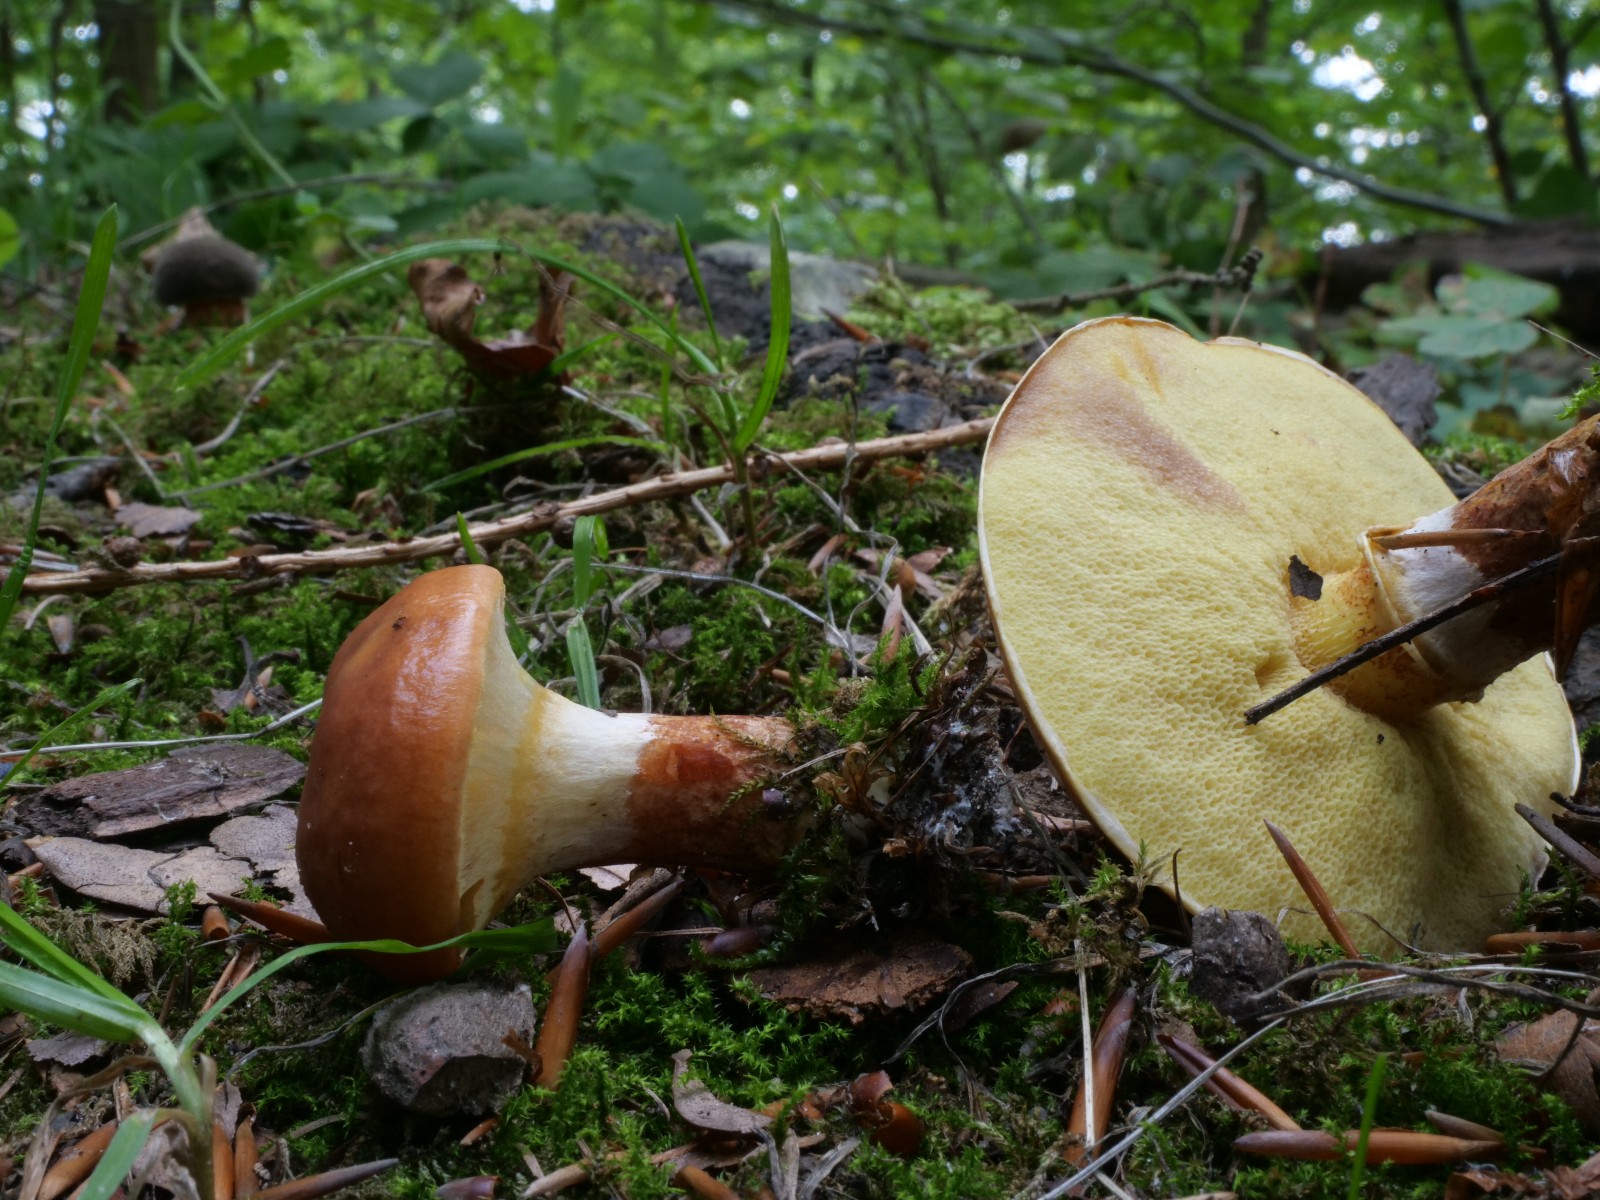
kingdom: Fungi
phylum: Basidiomycota
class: Agaricomycetes
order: Boletales
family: Suillaceae
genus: Suillus
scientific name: Suillus grevillei
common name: lærke-slimrørhat
